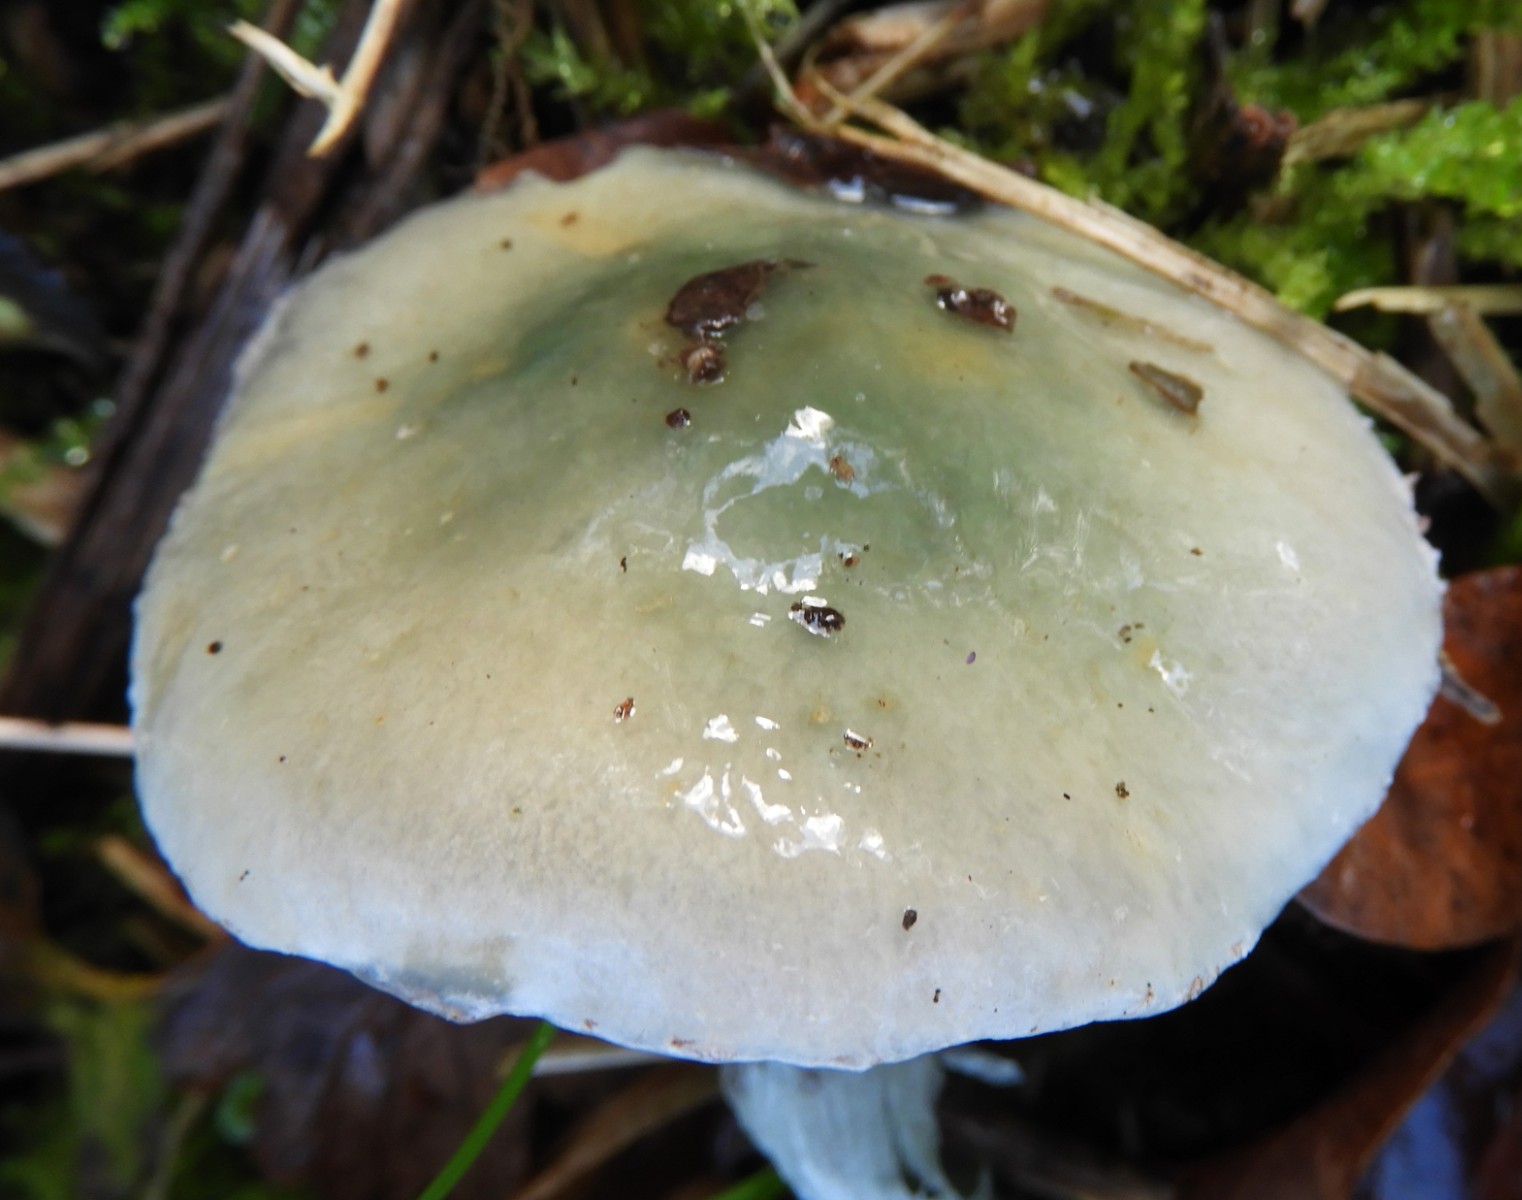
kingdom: Fungi
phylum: Basidiomycota
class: Agaricomycetes
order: Agaricales
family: Strophariaceae
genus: Stropharia
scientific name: Stropharia cyanea
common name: blågrøn bredblad
